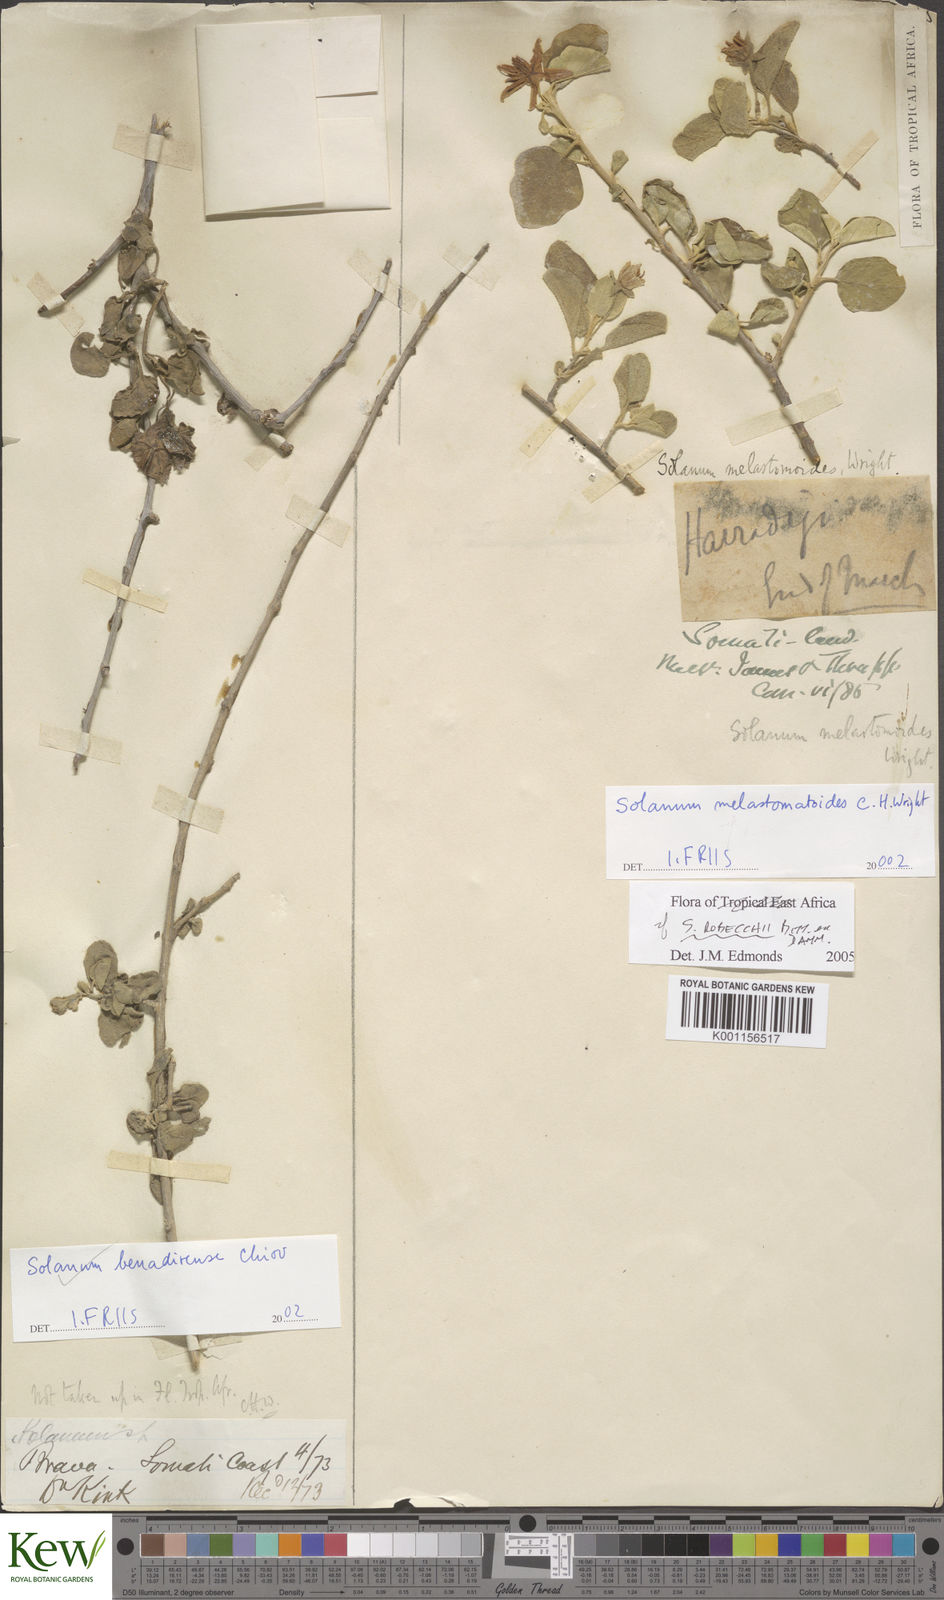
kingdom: Plantae
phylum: Tracheophyta
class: Magnoliopsida
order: Solanales
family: Solanaceae
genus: Solanum
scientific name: Solanum pampaninii
